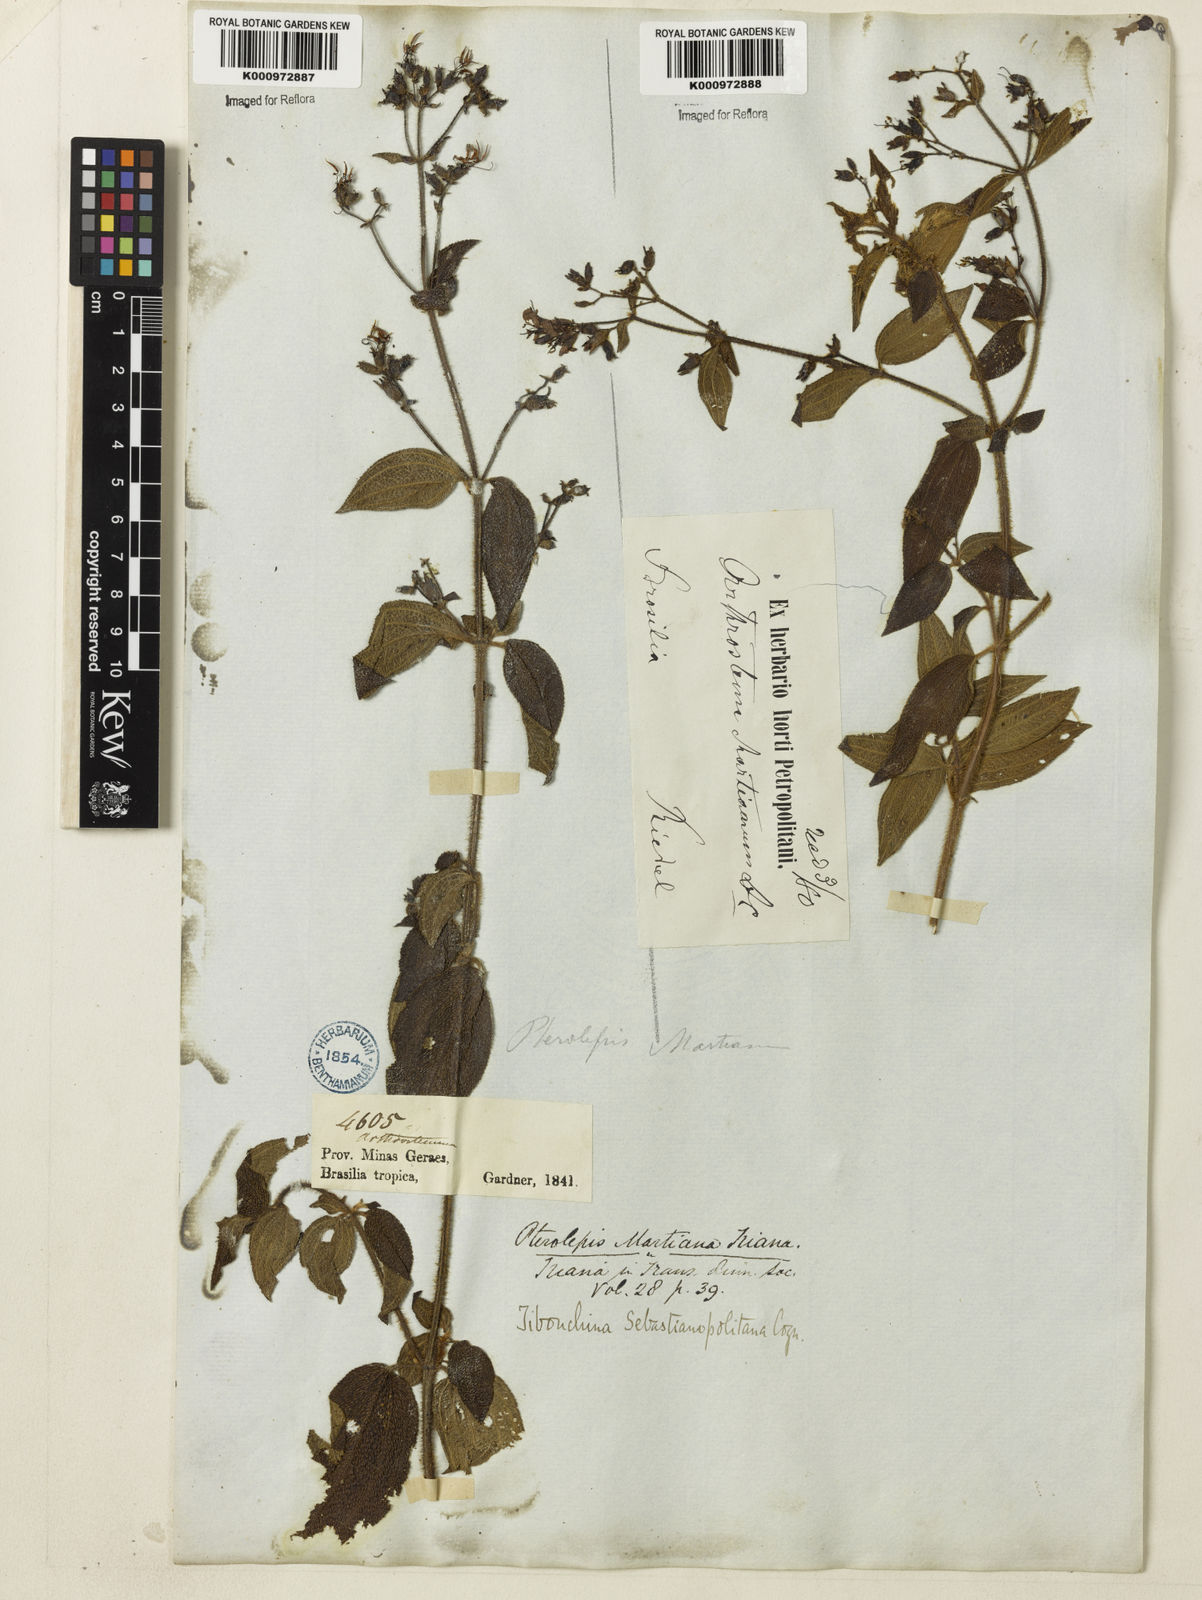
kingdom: Plantae
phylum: Tracheophyta
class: Magnoliopsida
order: Myrtales
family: Melastomataceae
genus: Chaetogastra
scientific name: Chaetogastra sebastianopolitana
